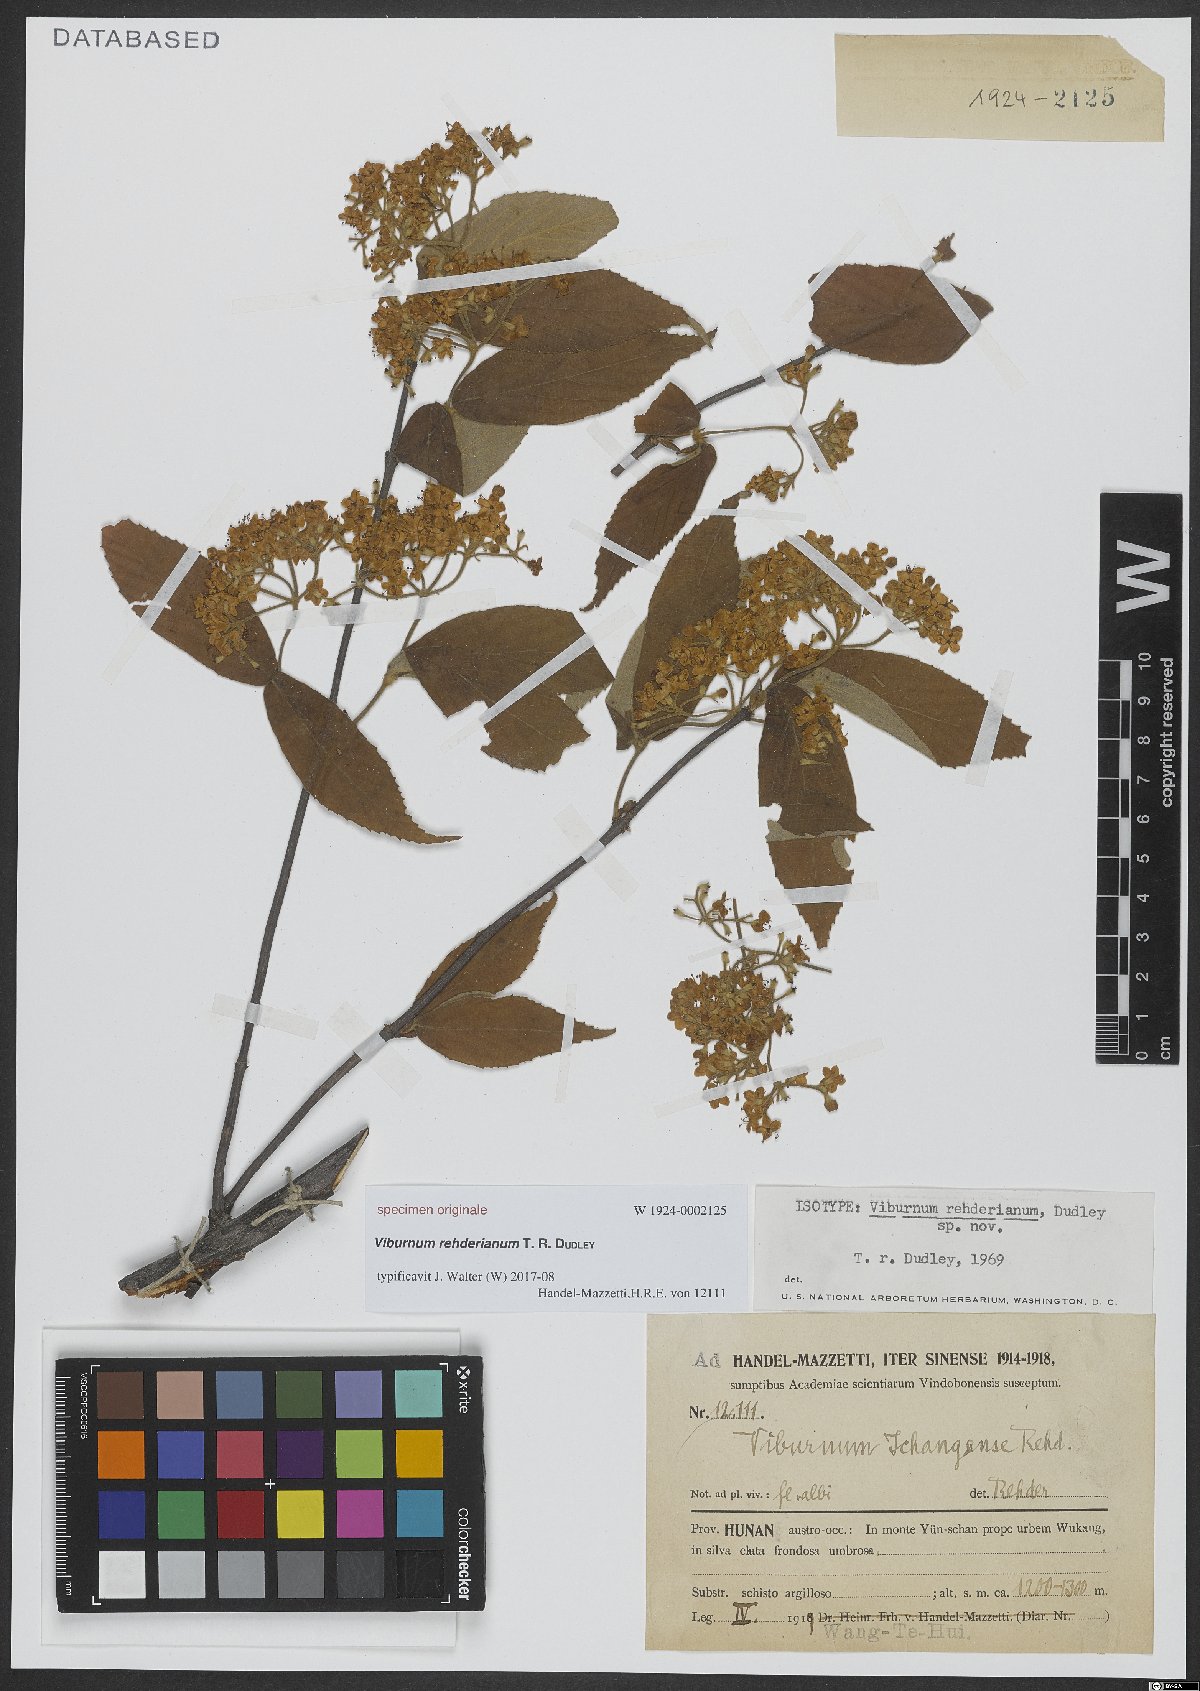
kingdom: Plantae
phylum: Tracheophyta
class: Magnoliopsida
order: Dipsacales
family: Viburnaceae
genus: Viburnum
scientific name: Viburnum erosum
